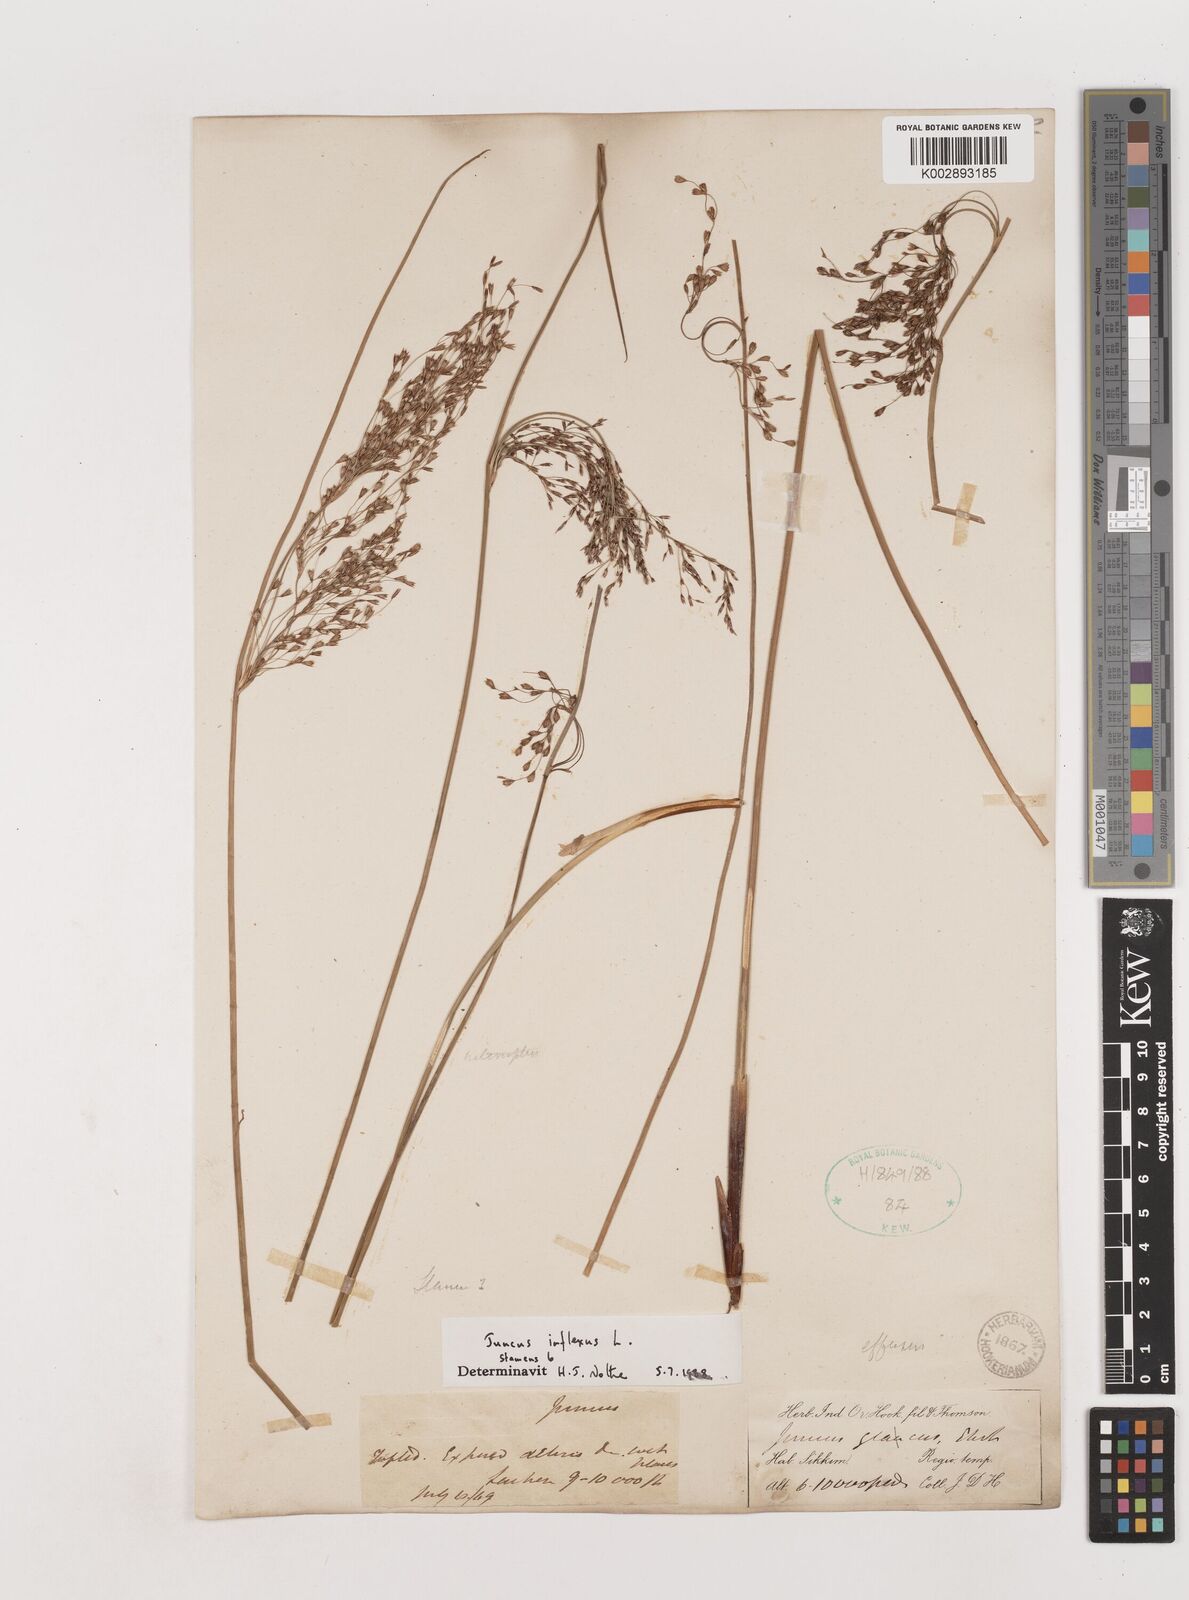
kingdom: Plantae
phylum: Tracheophyta
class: Liliopsida
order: Poales
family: Juncaceae
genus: Juncus
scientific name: Juncus inflexus
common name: Hard rush
